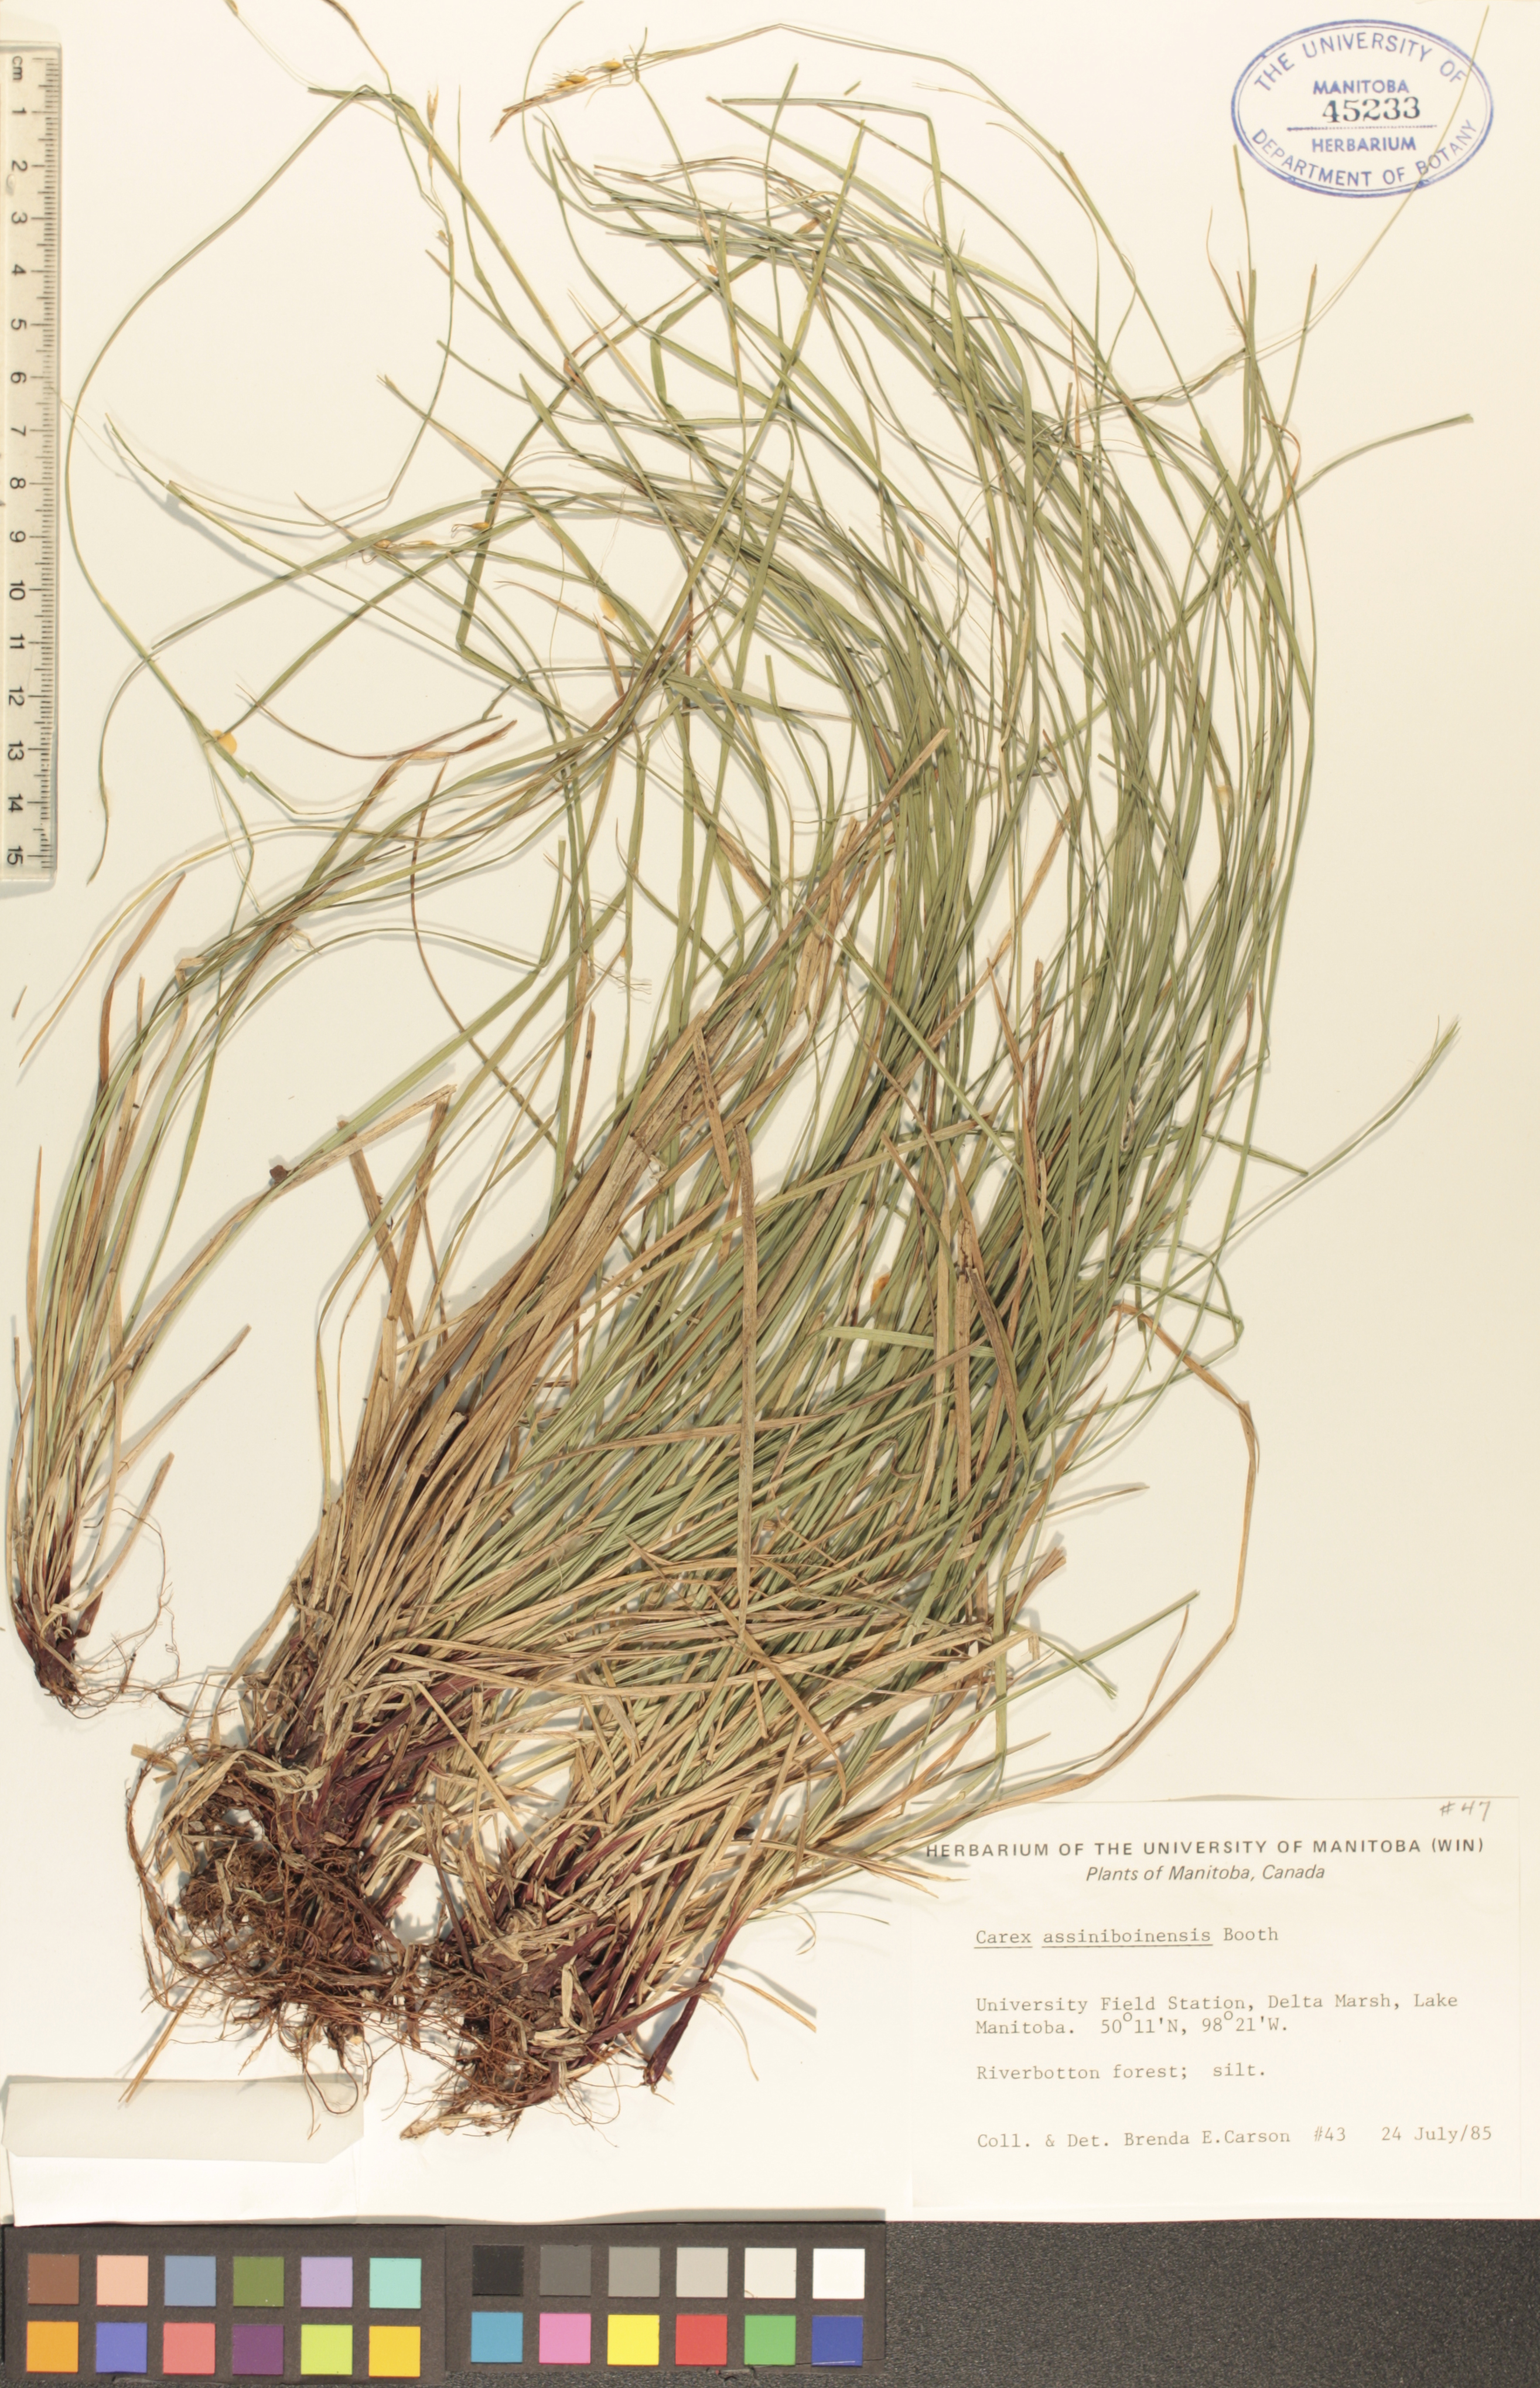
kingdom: Plantae
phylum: Tracheophyta
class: Liliopsida
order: Poales
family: Cyperaceae
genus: Carex
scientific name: Carex assiniboinensis
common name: Assiniboia sedge
